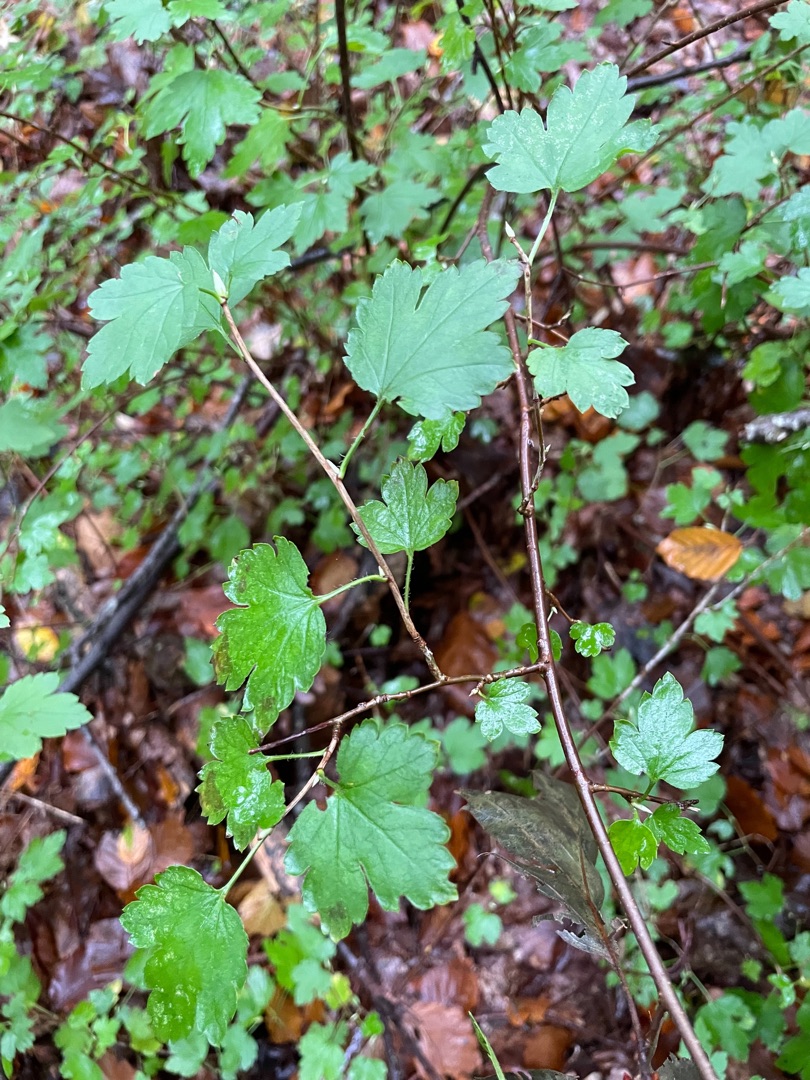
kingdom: Plantae
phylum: Tracheophyta
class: Magnoliopsida
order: Saxifragales
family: Grossulariaceae
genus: Ribes
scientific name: Ribes alpinum
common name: Fjeld-ribs
